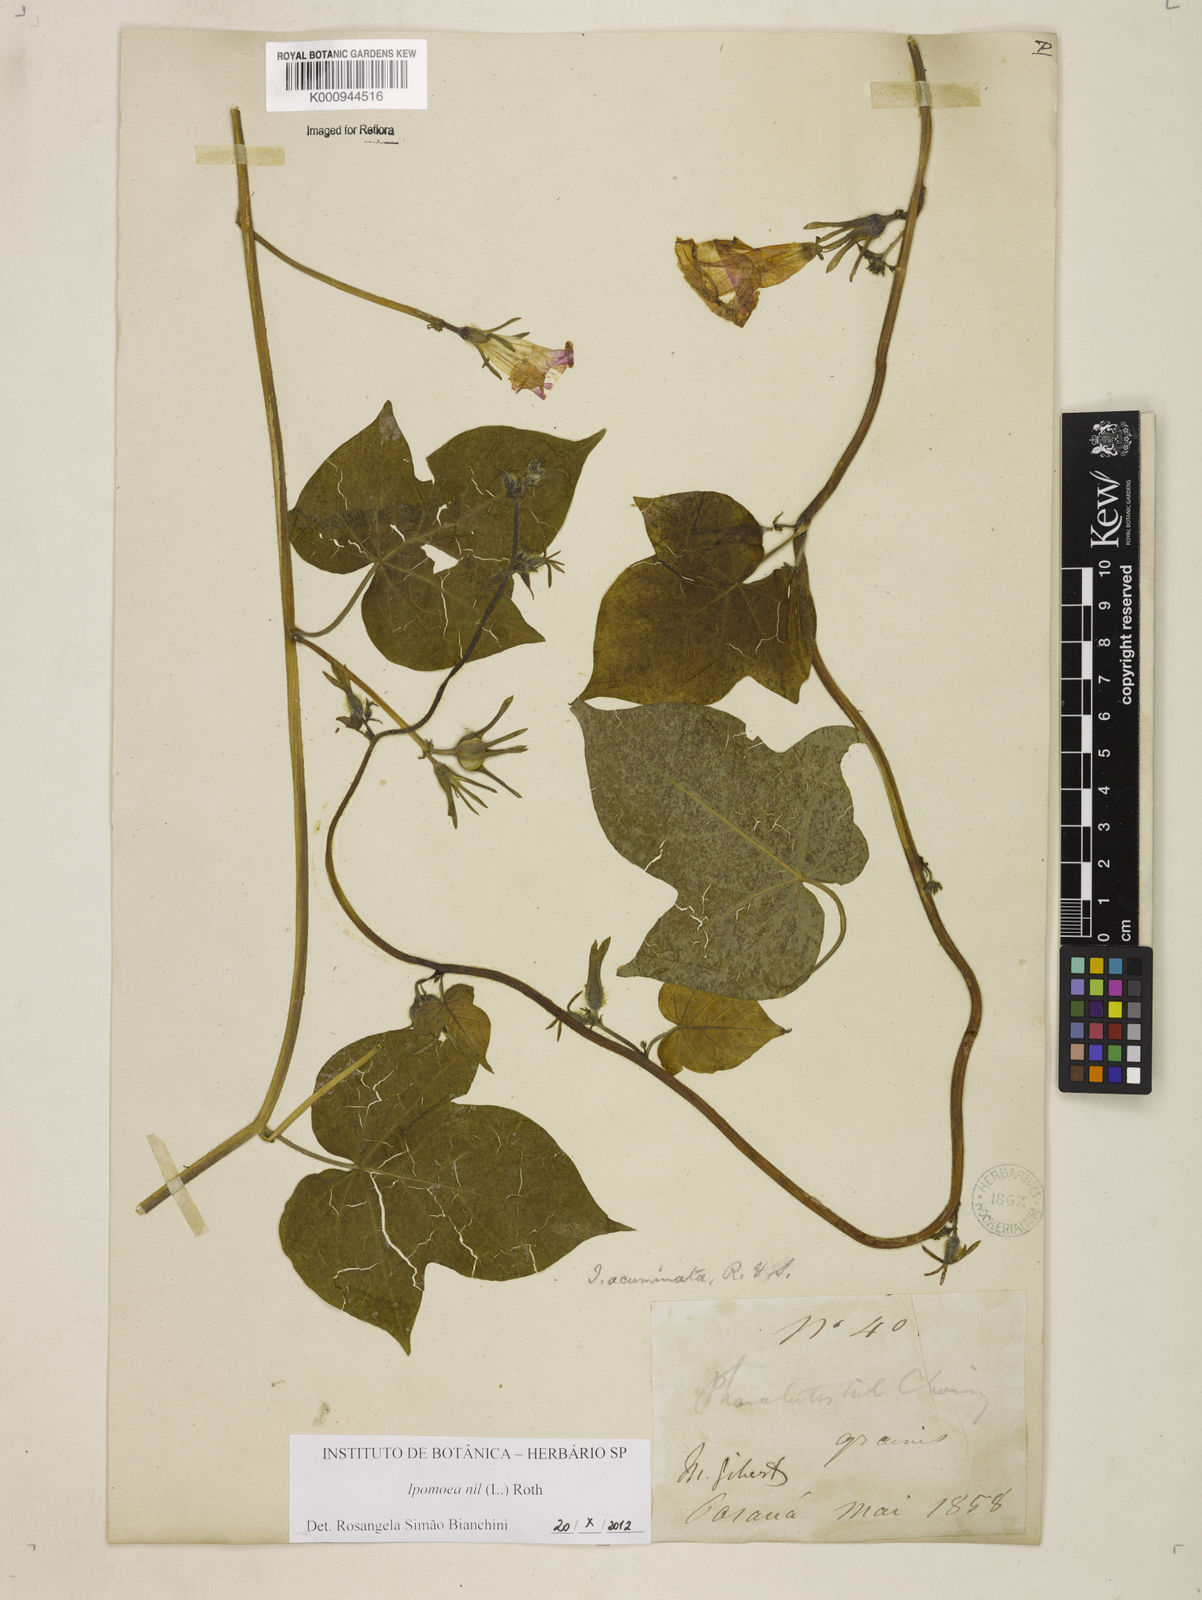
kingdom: Plantae
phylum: Tracheophyta
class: Magnoliopsida
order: Solanales
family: Convolvulaceae
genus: Ipomoea
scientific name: Ipomoea nil
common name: Japanese morning-glory
